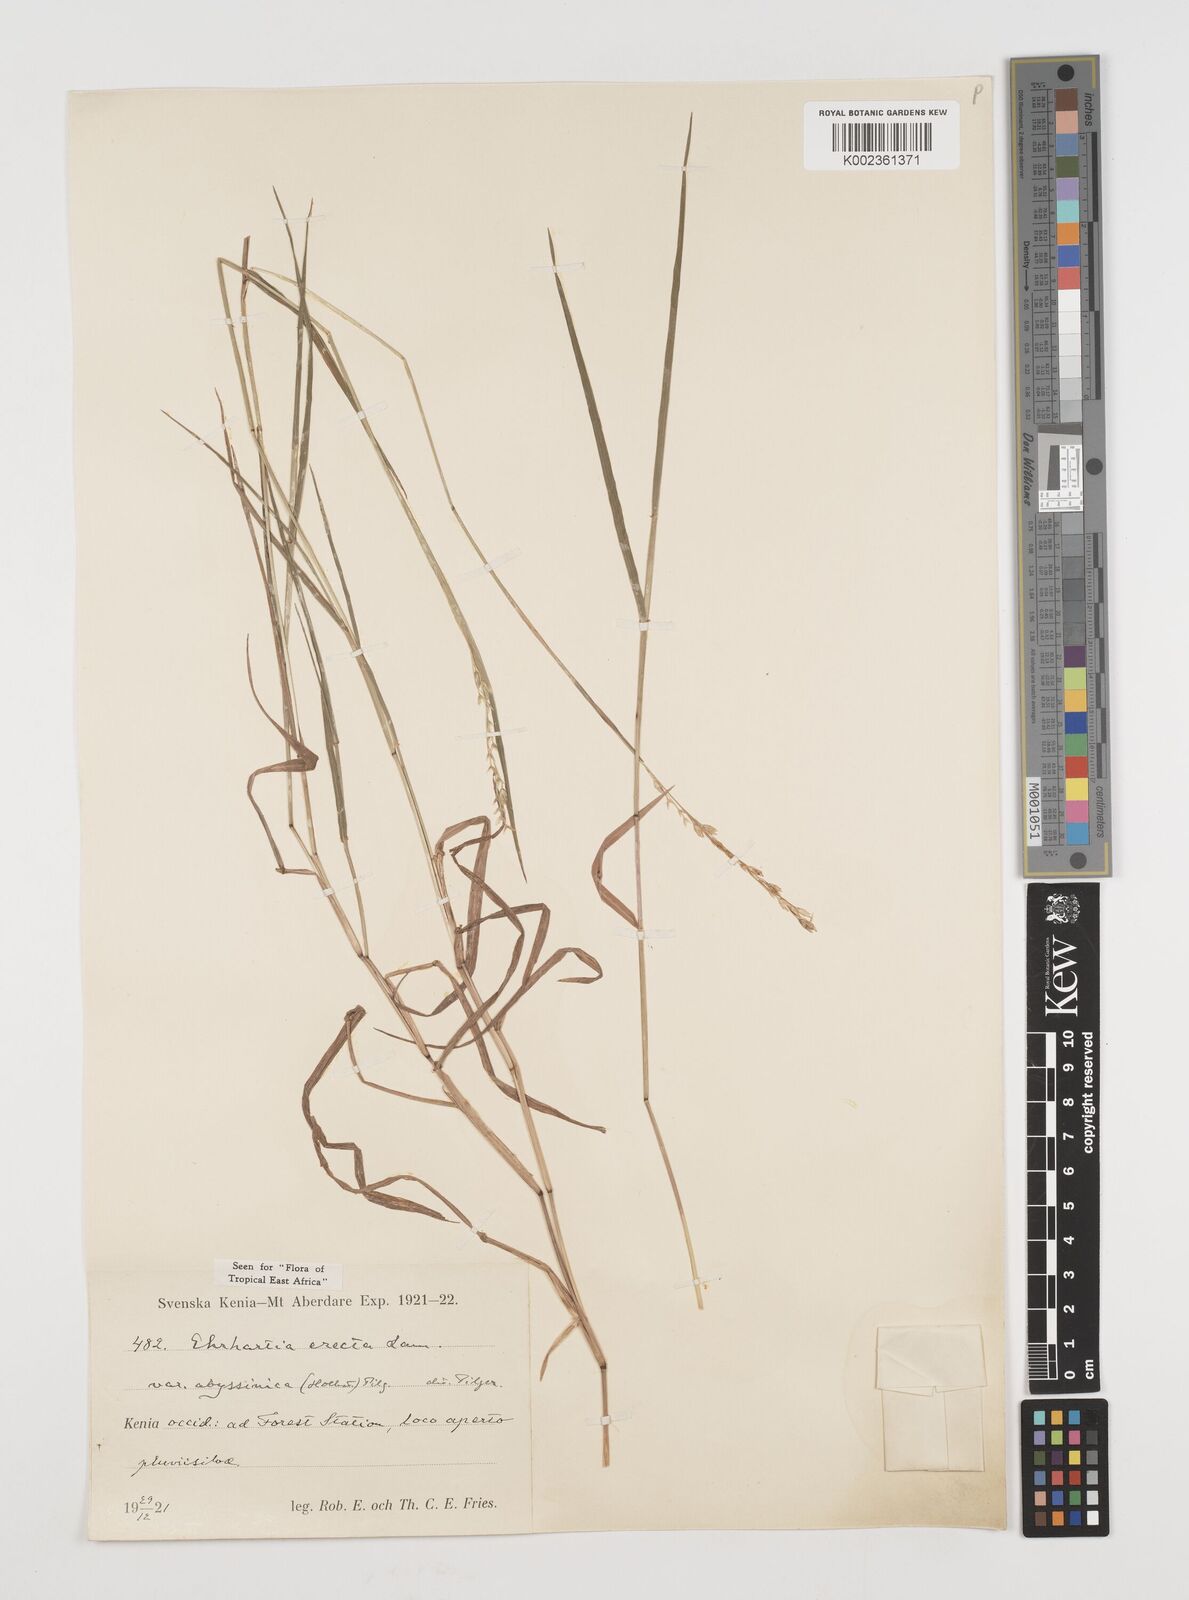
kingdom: Plantae
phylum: Tracheophyta
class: Liliopsida
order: Poales
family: Poaceae
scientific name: Poaceae
